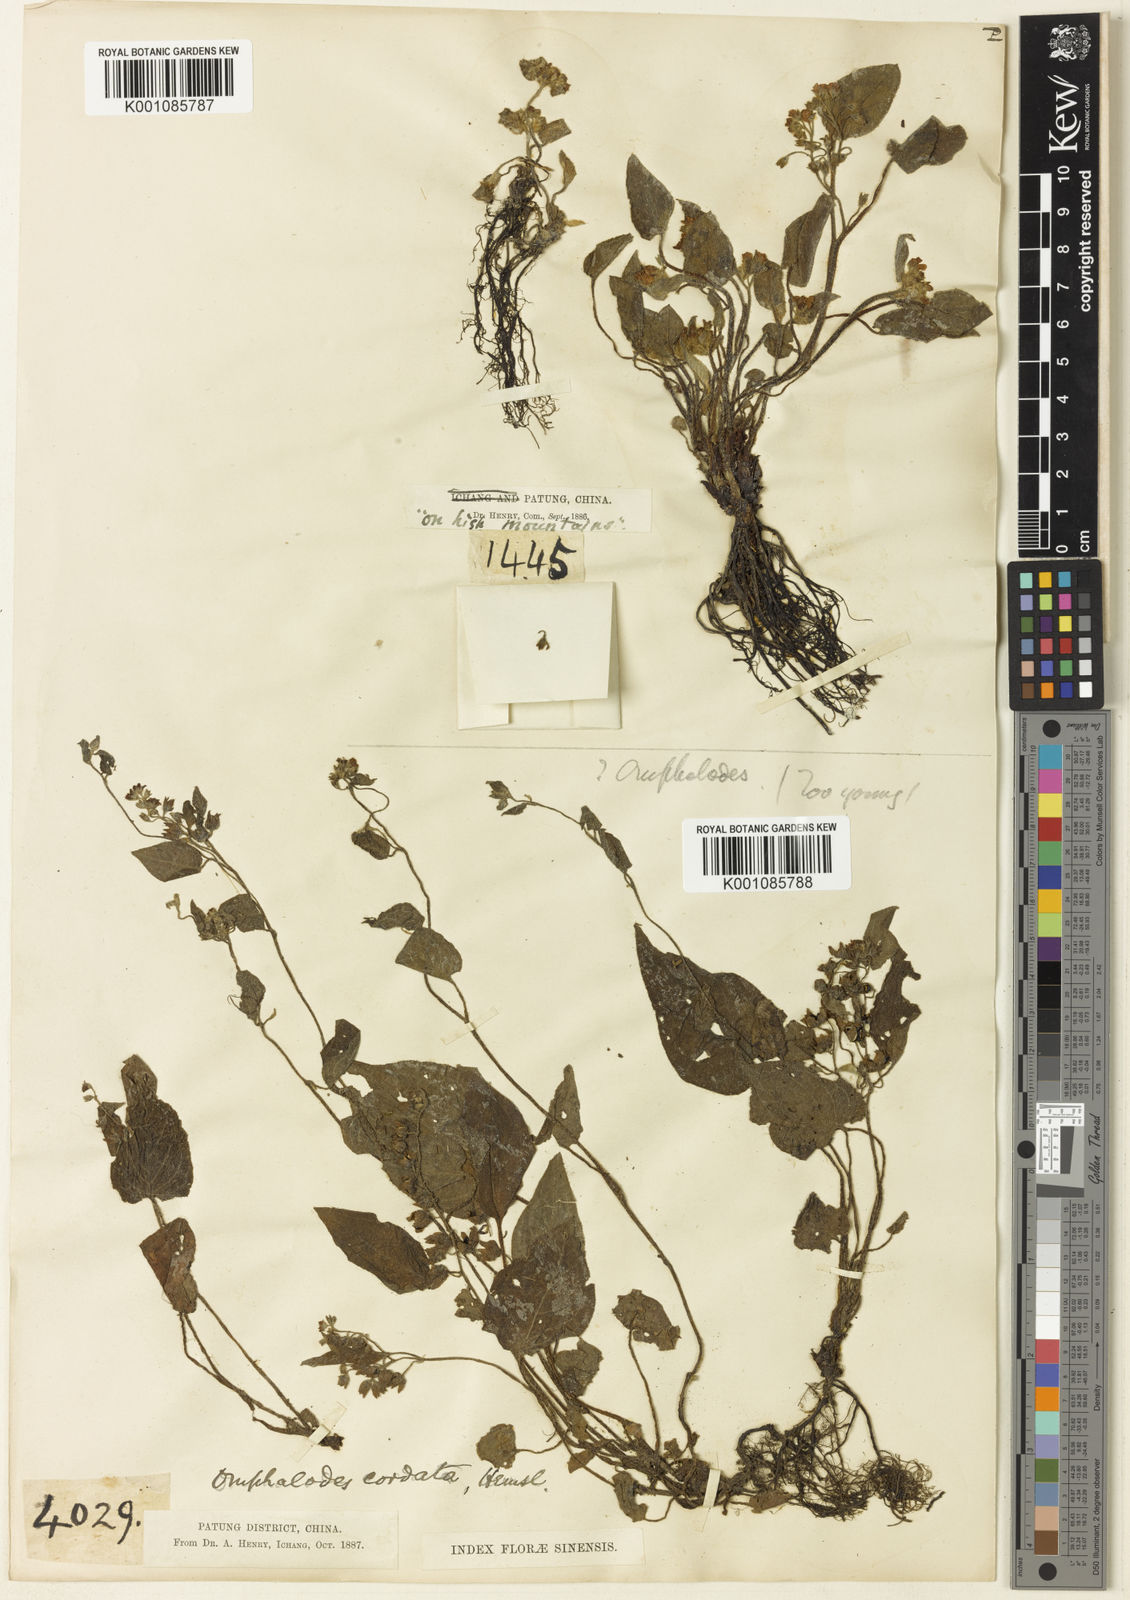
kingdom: Plantae
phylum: Tracheophyta
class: Magnoliopsida
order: Boraginales
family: Boraginaceae
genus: Trigonotis
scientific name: Trigonotis
